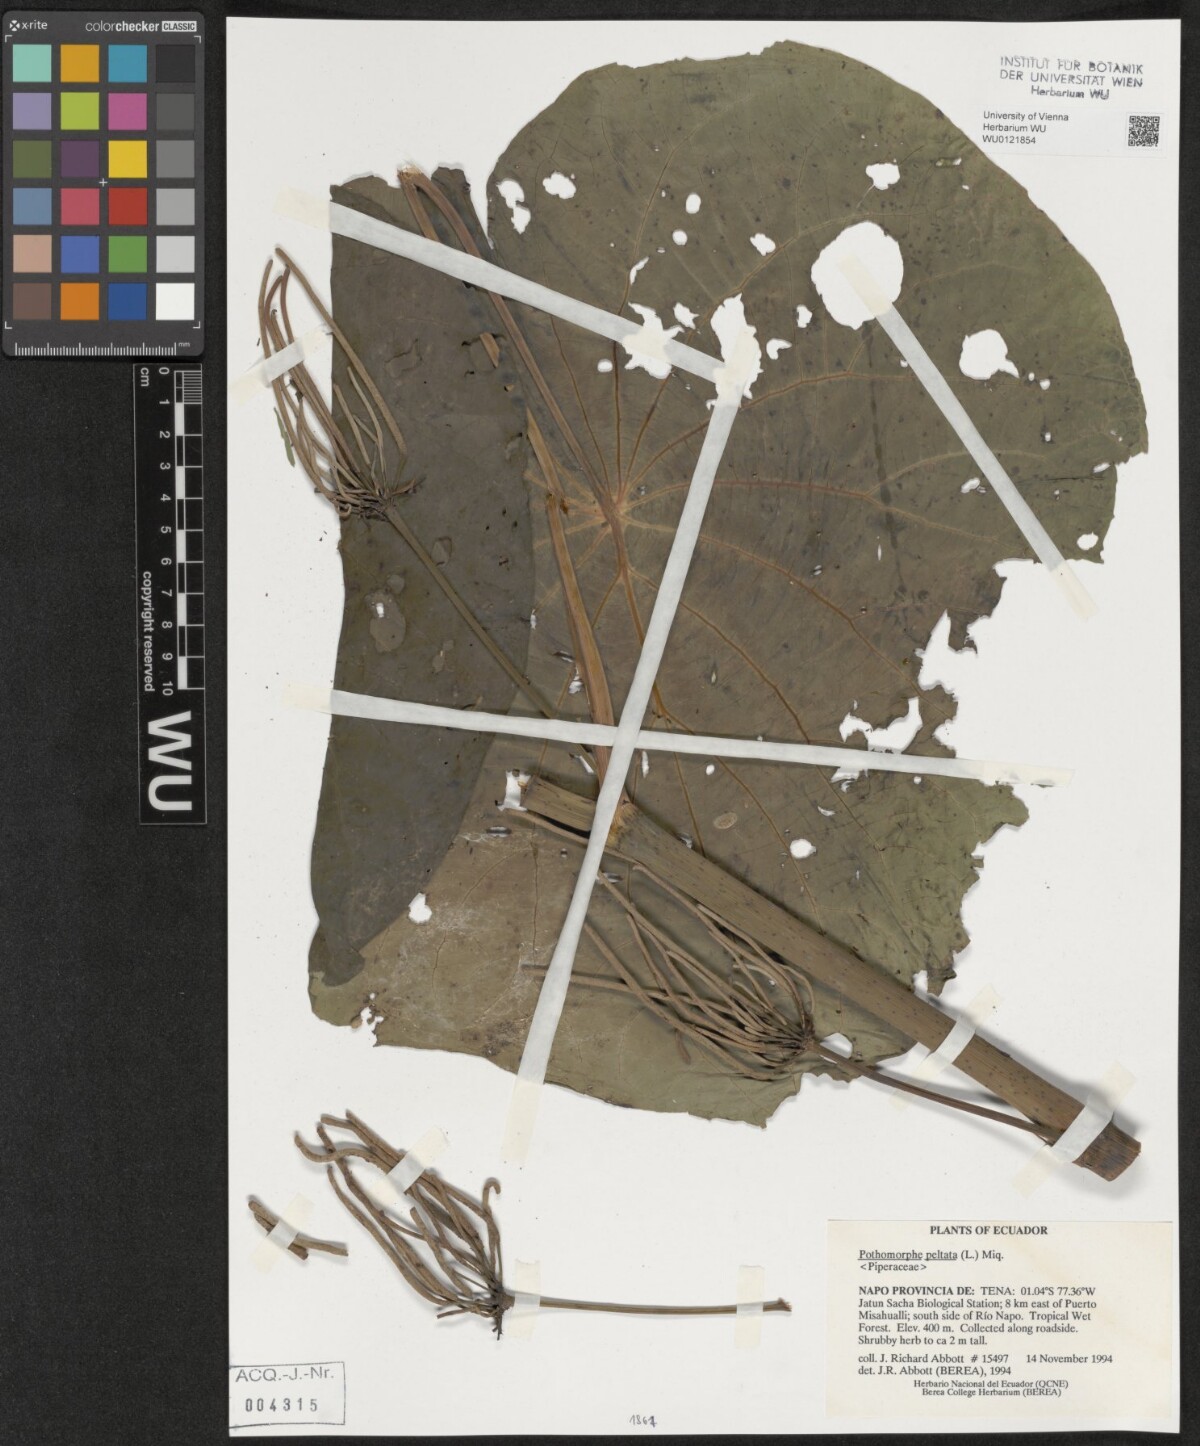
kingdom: Plantae
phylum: Tracheophyta
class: Magnoliopsida
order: Piperales
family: Piperaceae
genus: Piper
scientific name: Piper peltatum
